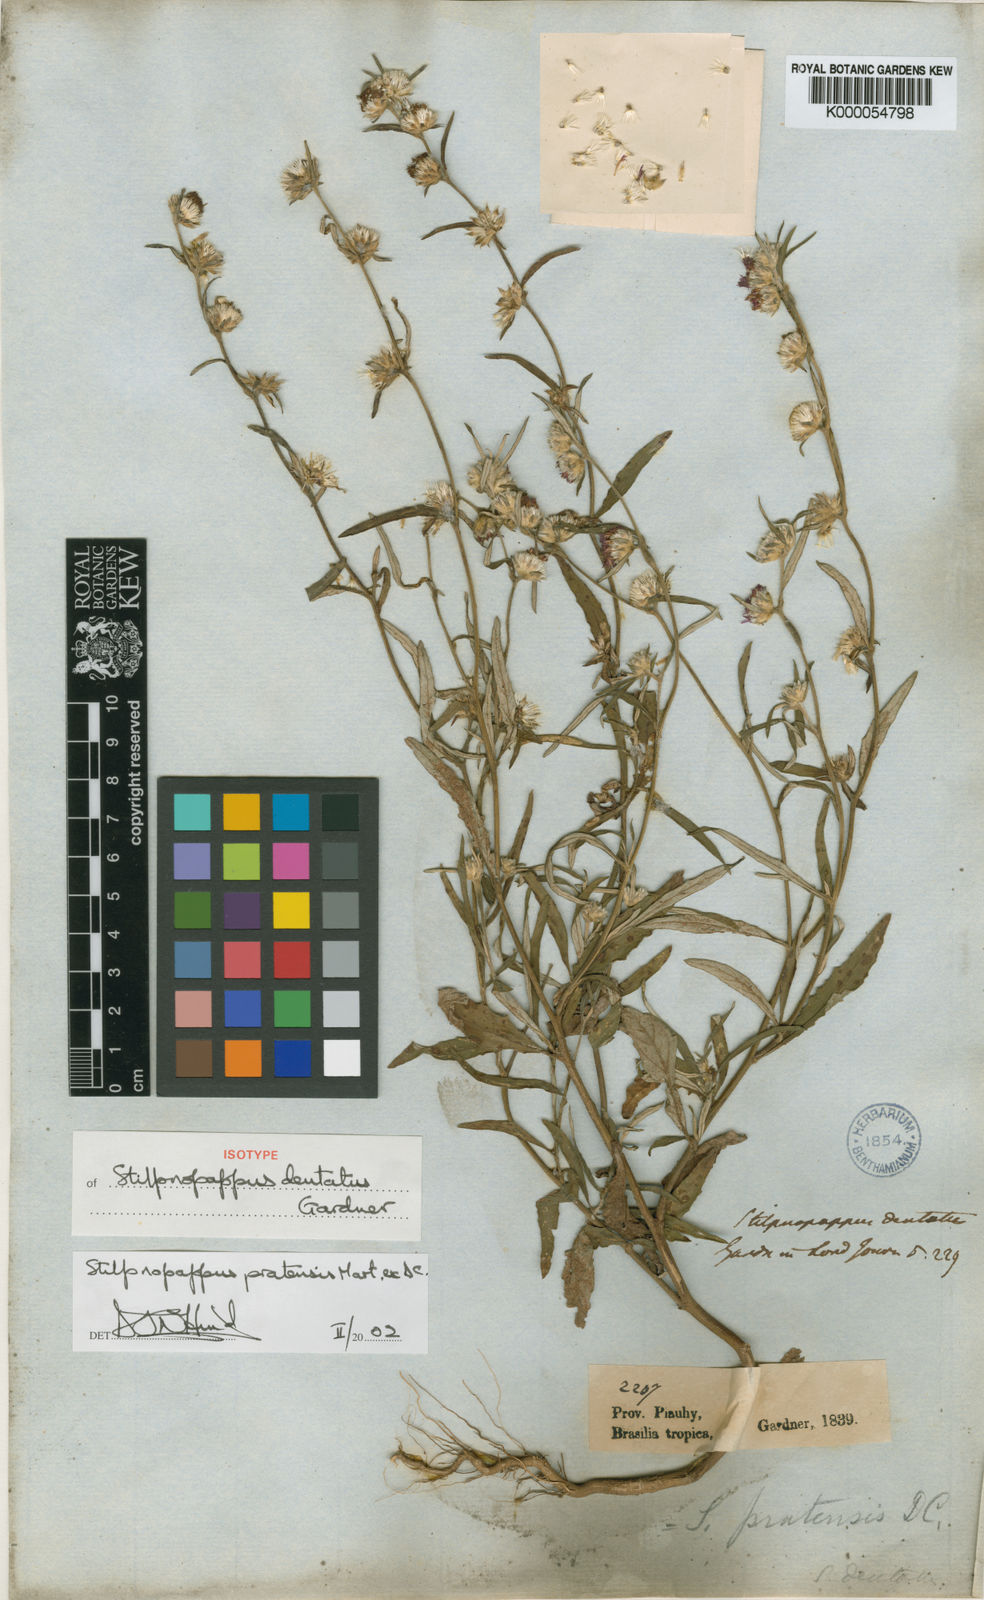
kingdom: Plantae
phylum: Tracheophyta
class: Magnoliopsida
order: Asterales
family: Asteraceae
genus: Stilpnopappus
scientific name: Stilpnopappus pratensis
